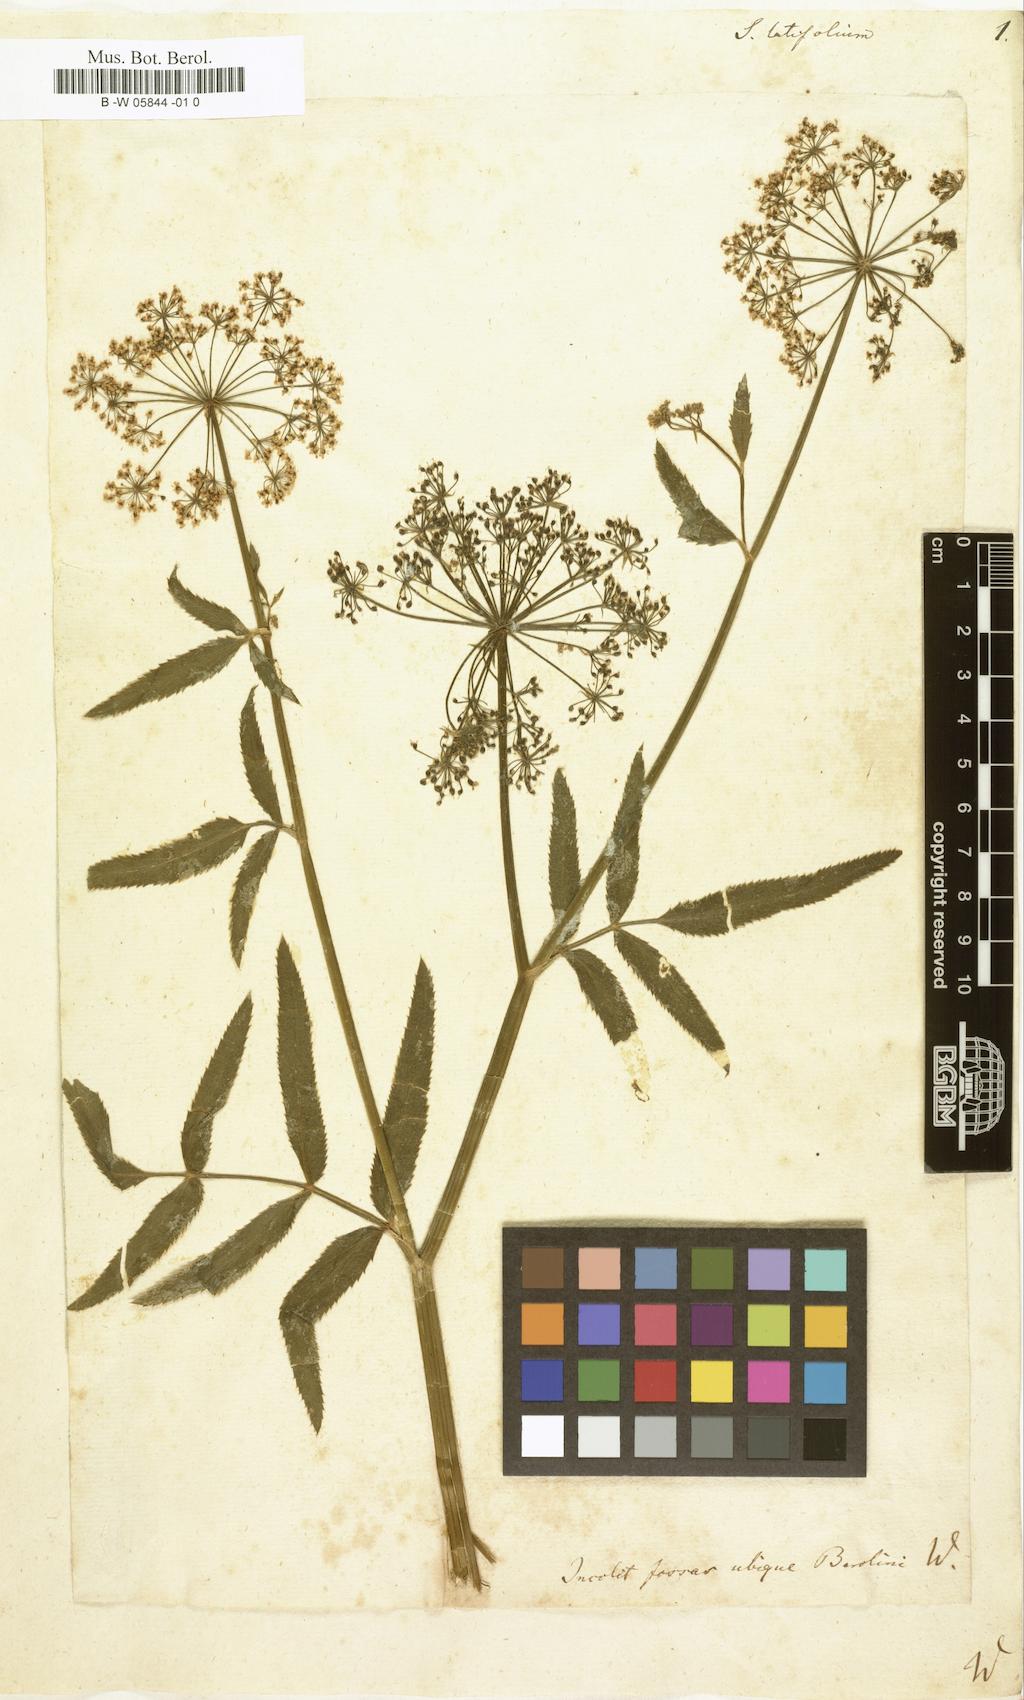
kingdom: Plantae
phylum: Tracheophyta
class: Magnoliopsida
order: Apiales
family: Apiaceae
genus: Sium
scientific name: Sium latifolium
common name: Greater water-parsnip
